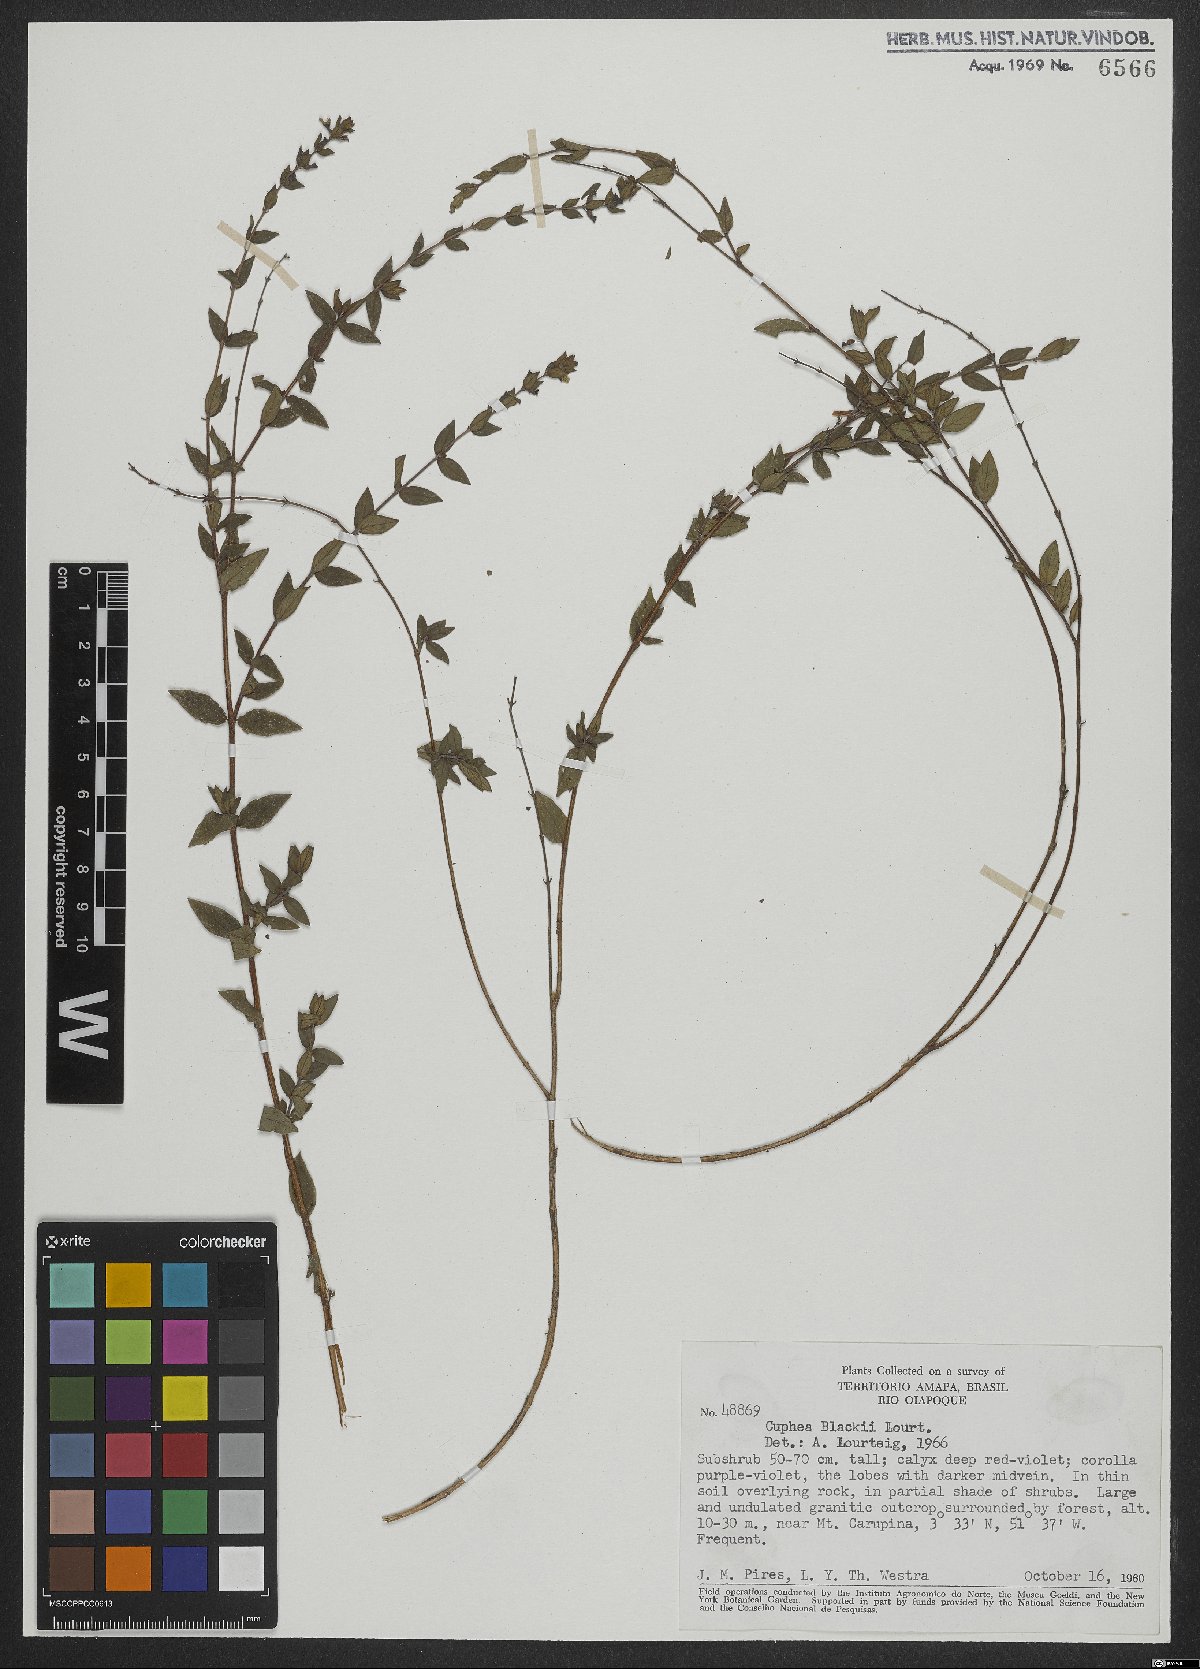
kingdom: Plantae
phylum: Tracheophyta
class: Magnoliopsida
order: Myrtales
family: Lythraceae
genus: Cuphea
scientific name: Cuphea blackii
